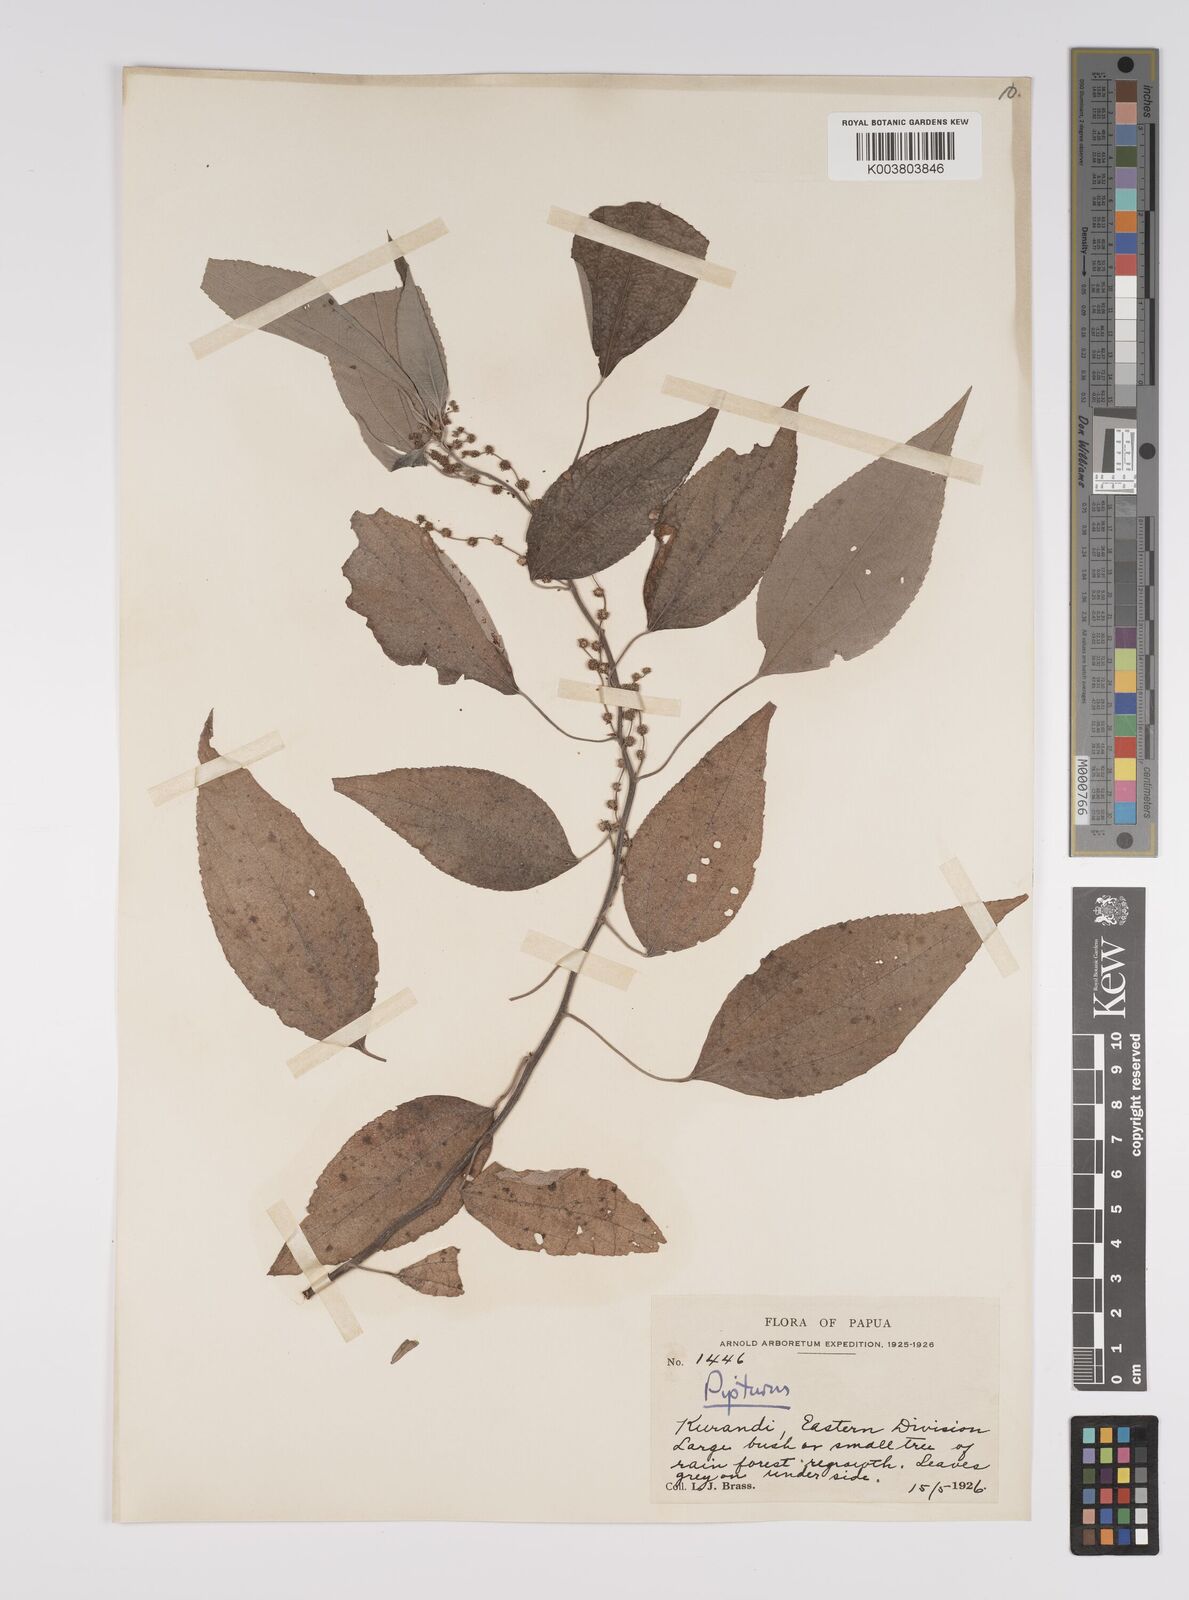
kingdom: Plantae
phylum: Tracheophyta
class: Magnoliopsida
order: Rosales
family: Urticaceae
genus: Pipturus
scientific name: Pipturus argenteus
